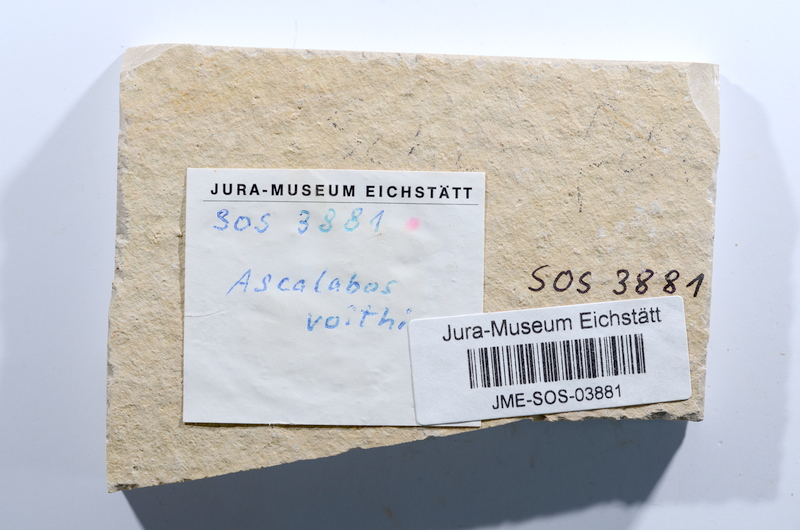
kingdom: Animalia
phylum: Chordata
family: Ascalaboidae
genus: Ascalabos
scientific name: Ascalabos voithii
